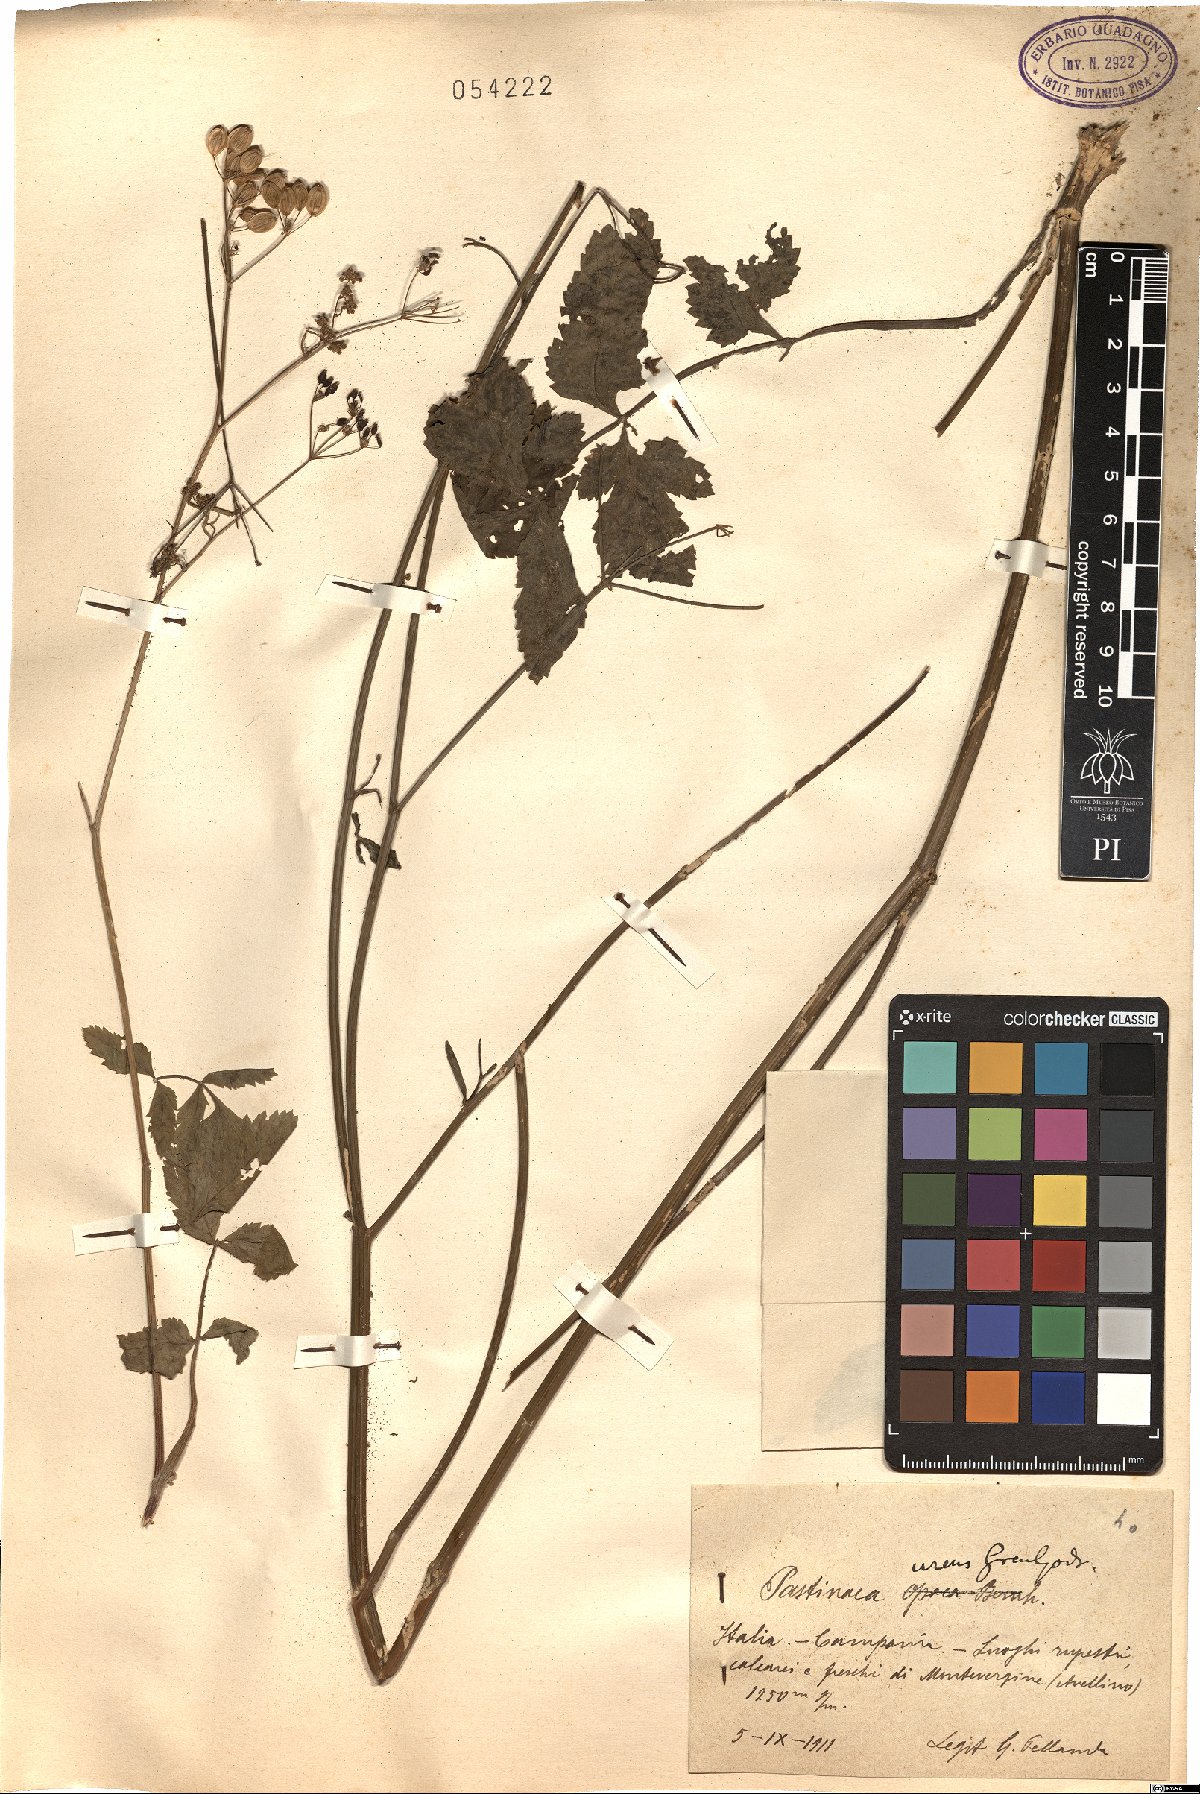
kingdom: Plantae
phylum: Tracheophyta
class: Magnoliopsida
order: Apiales
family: Apiaceae
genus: Pastinaca
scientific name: Pastinaca sativa
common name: Wild parsnip
